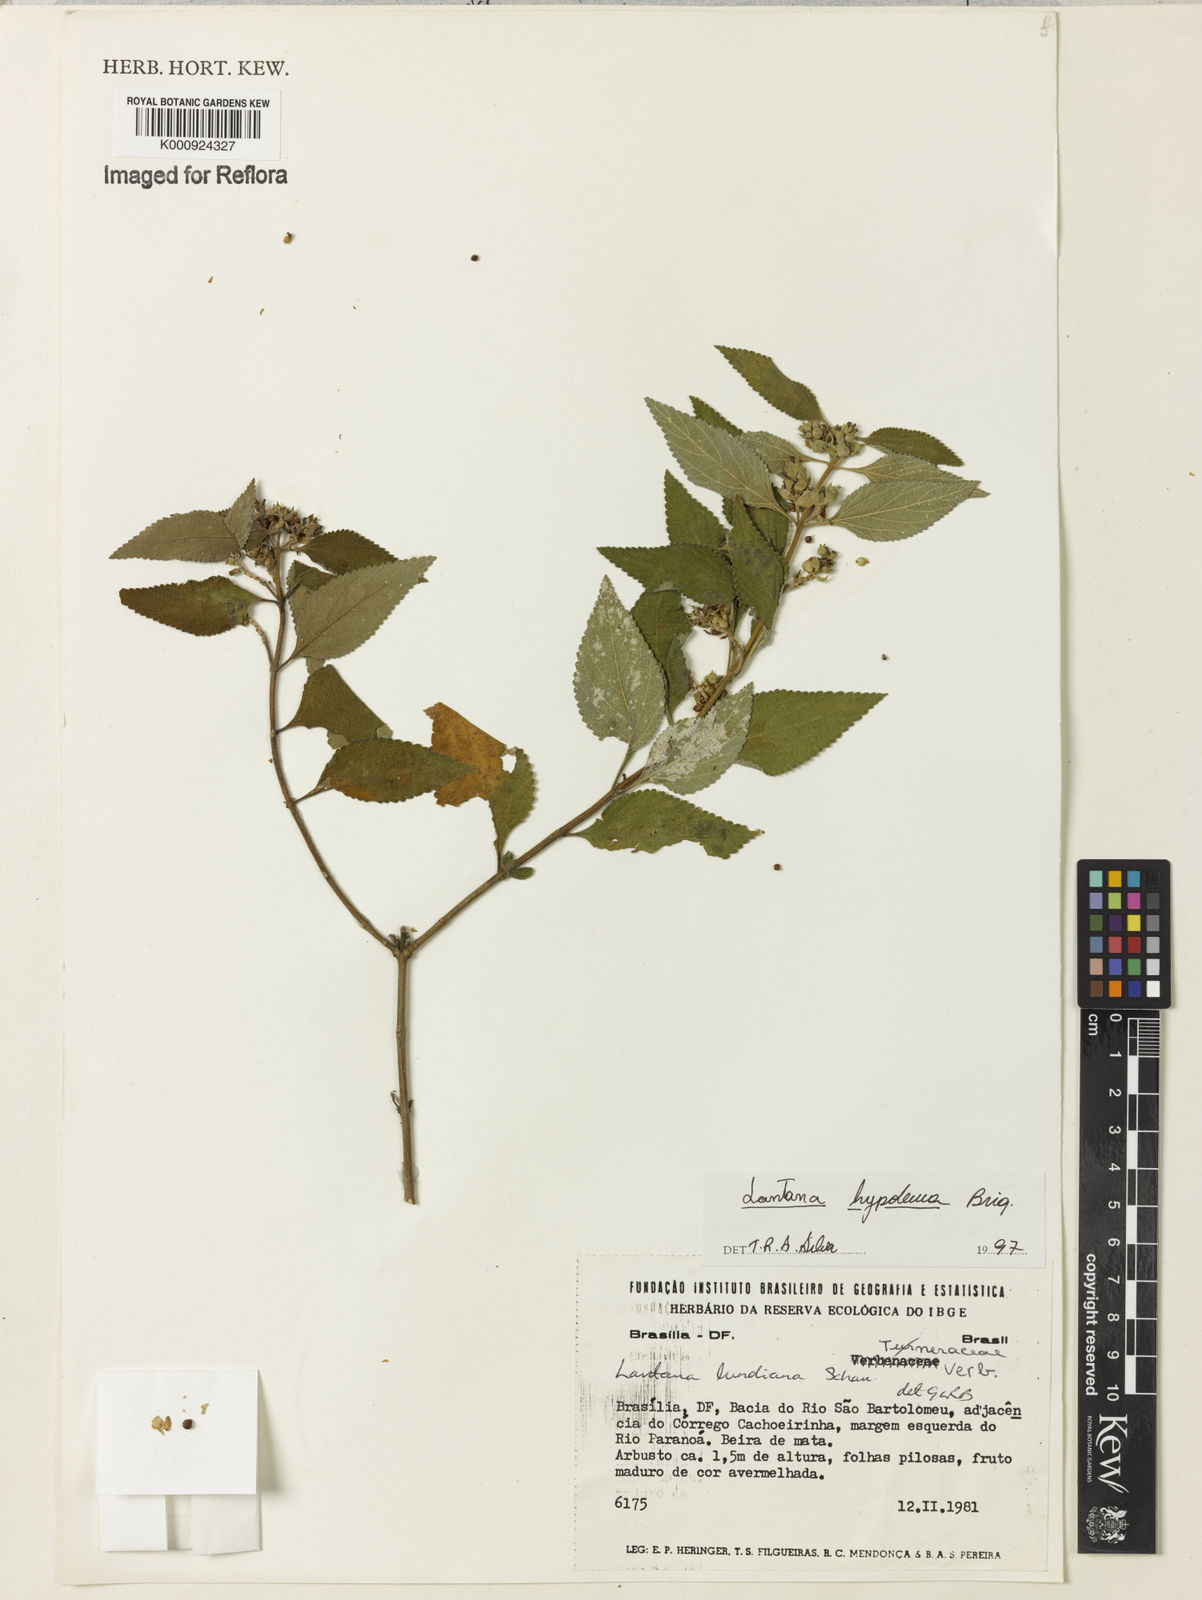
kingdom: Plantae
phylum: Tracheophyta
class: Magnoliopsida
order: Lamiales
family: Verbenaceae
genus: Lantana
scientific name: Lantana hypoleuca
